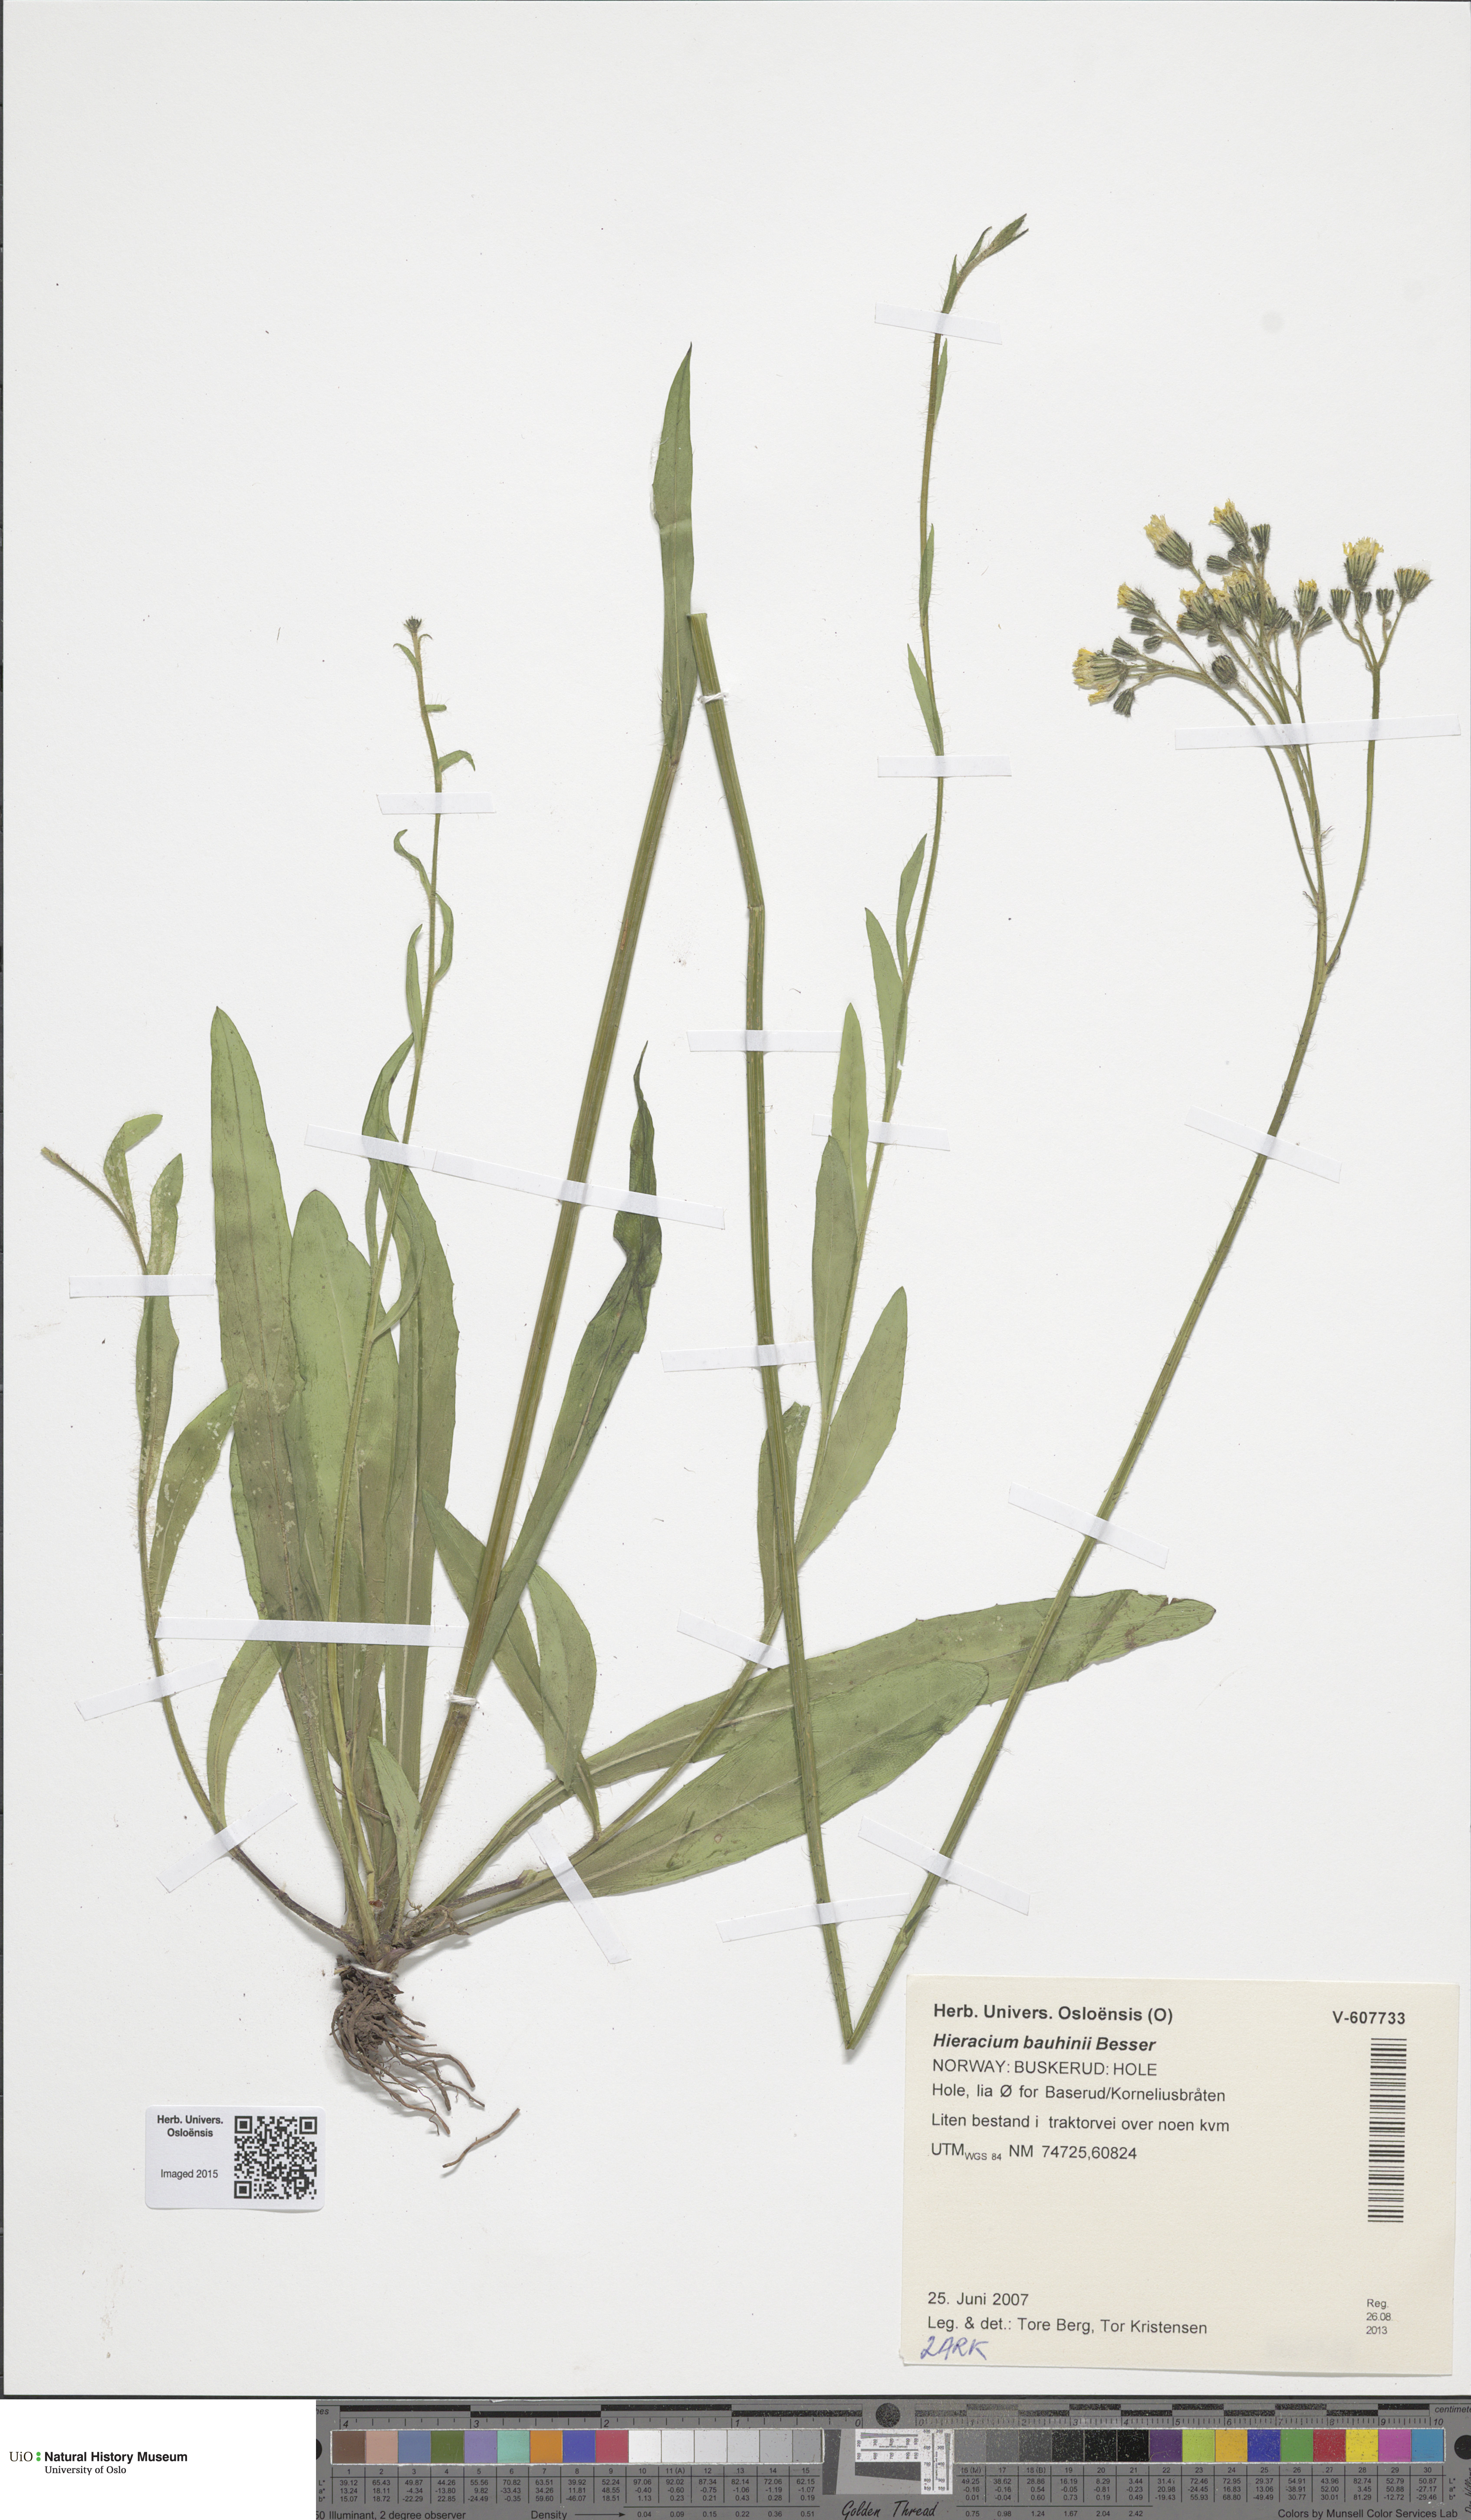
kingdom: Plantae
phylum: Tracheophyta
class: Magnoliopsida
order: Asterales
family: Asteraceae
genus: Pilosella
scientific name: Pilosella bauhini
